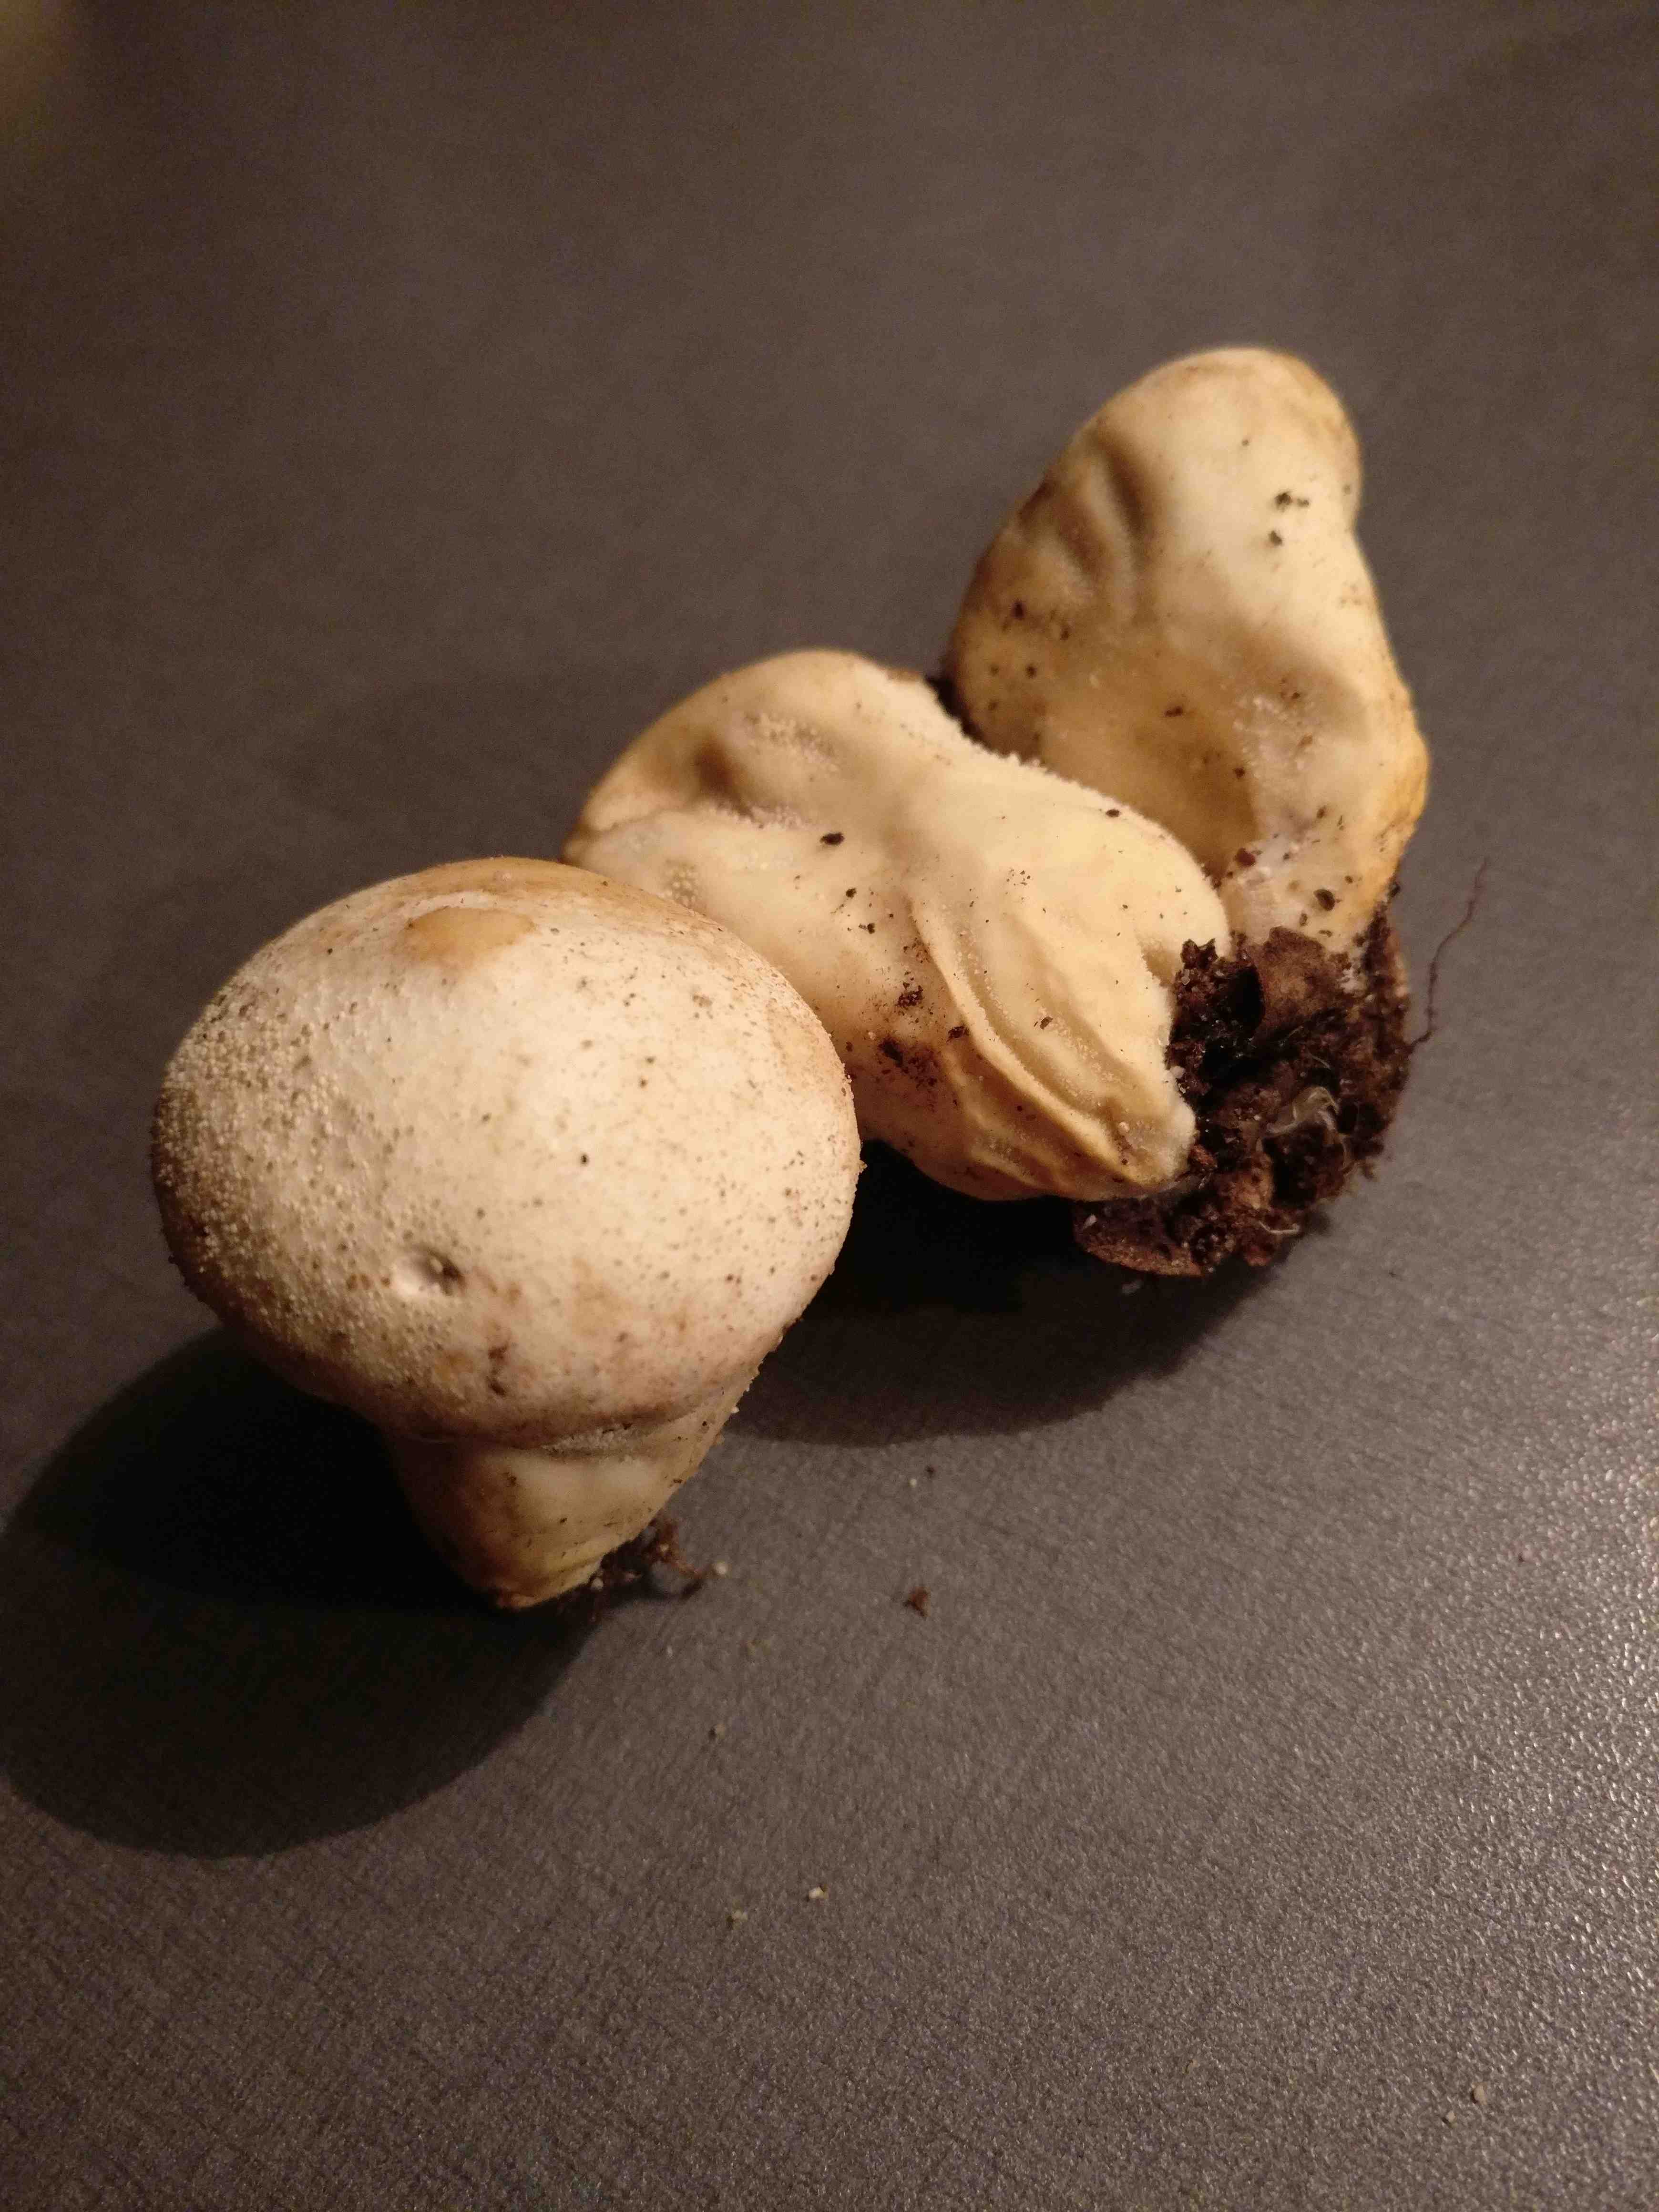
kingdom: Fungi
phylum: Basidiomycota
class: Agaricomycetes
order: Agaricales
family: Lycoperdaceae
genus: Apioperdon
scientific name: Apioperdon pyriforme
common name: pære-støvbold
